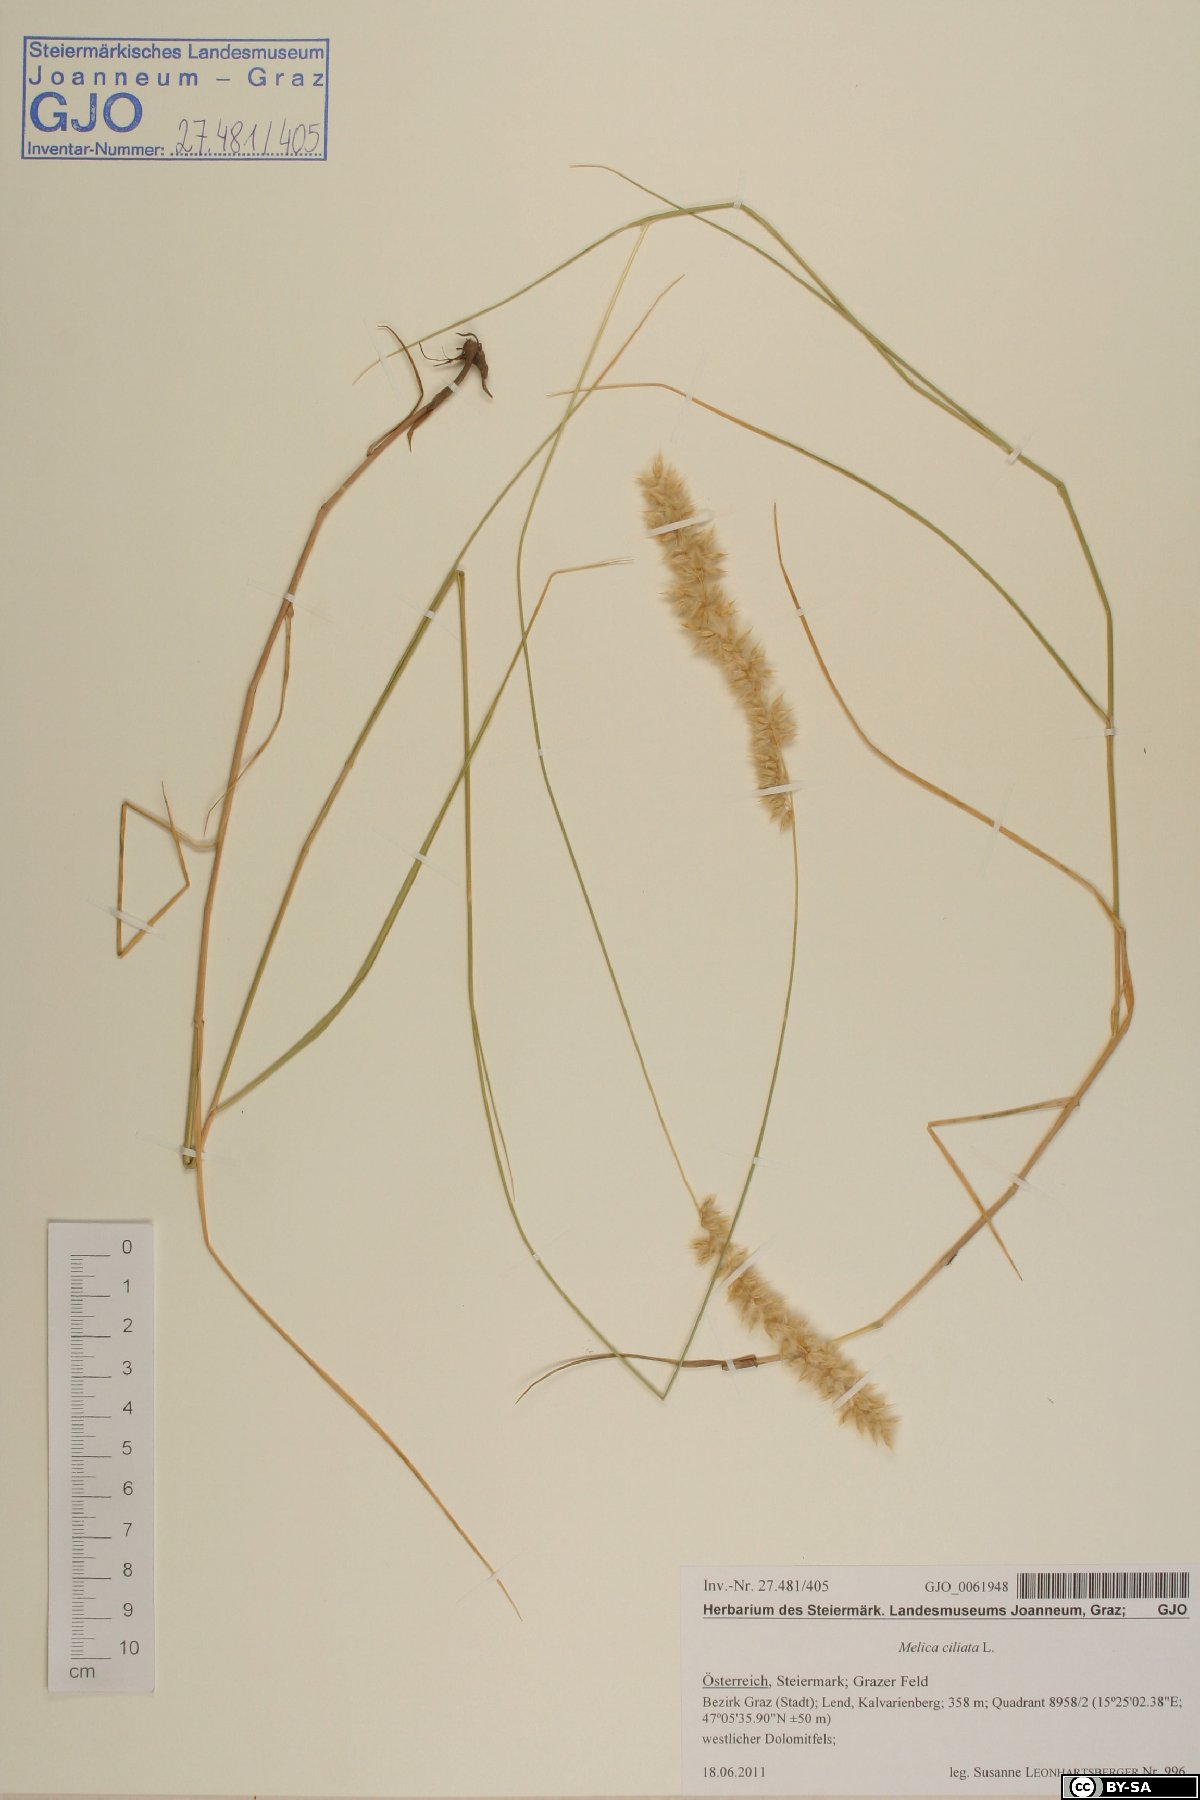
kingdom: Plantae
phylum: Tracheophyta
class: Liliopsida
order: Poales
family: Poaceae
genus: Melica
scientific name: Melica ciliata
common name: Hairy melicgrass
